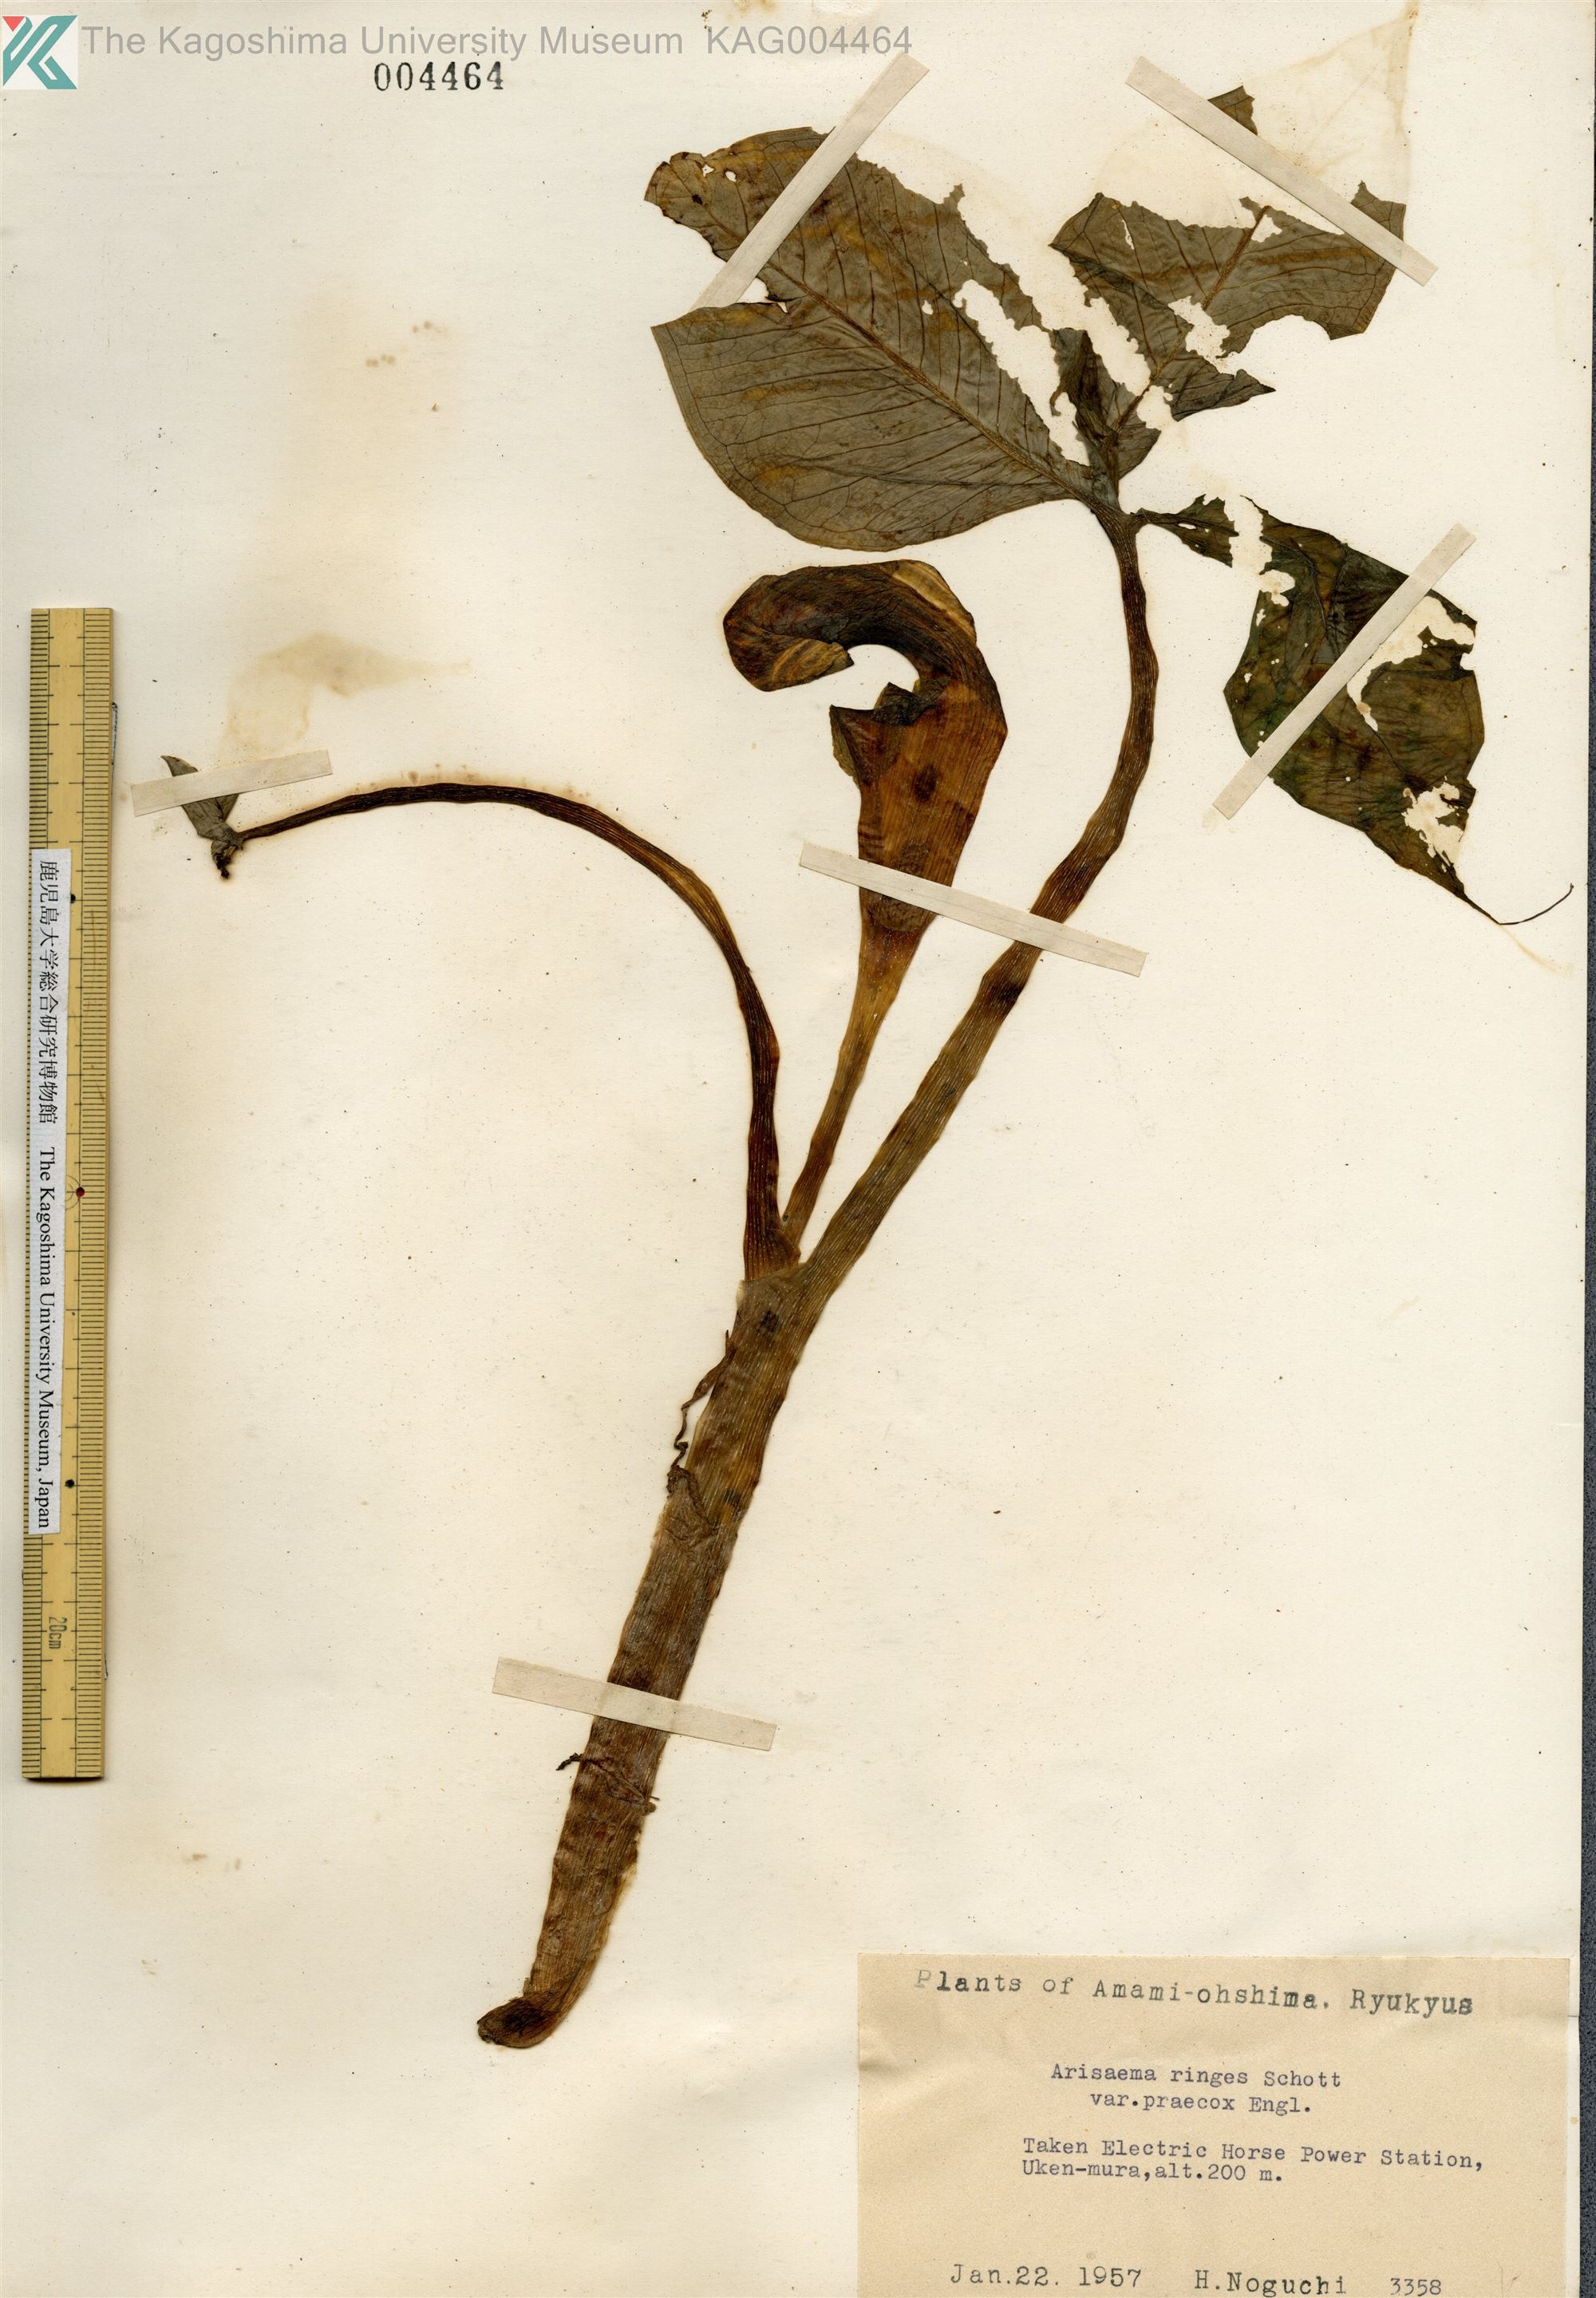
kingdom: Plantae
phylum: Tracheophyta
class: Liliopsida
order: Alismatales
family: Araceae
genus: Arisaema
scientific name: Arisaema ringens
